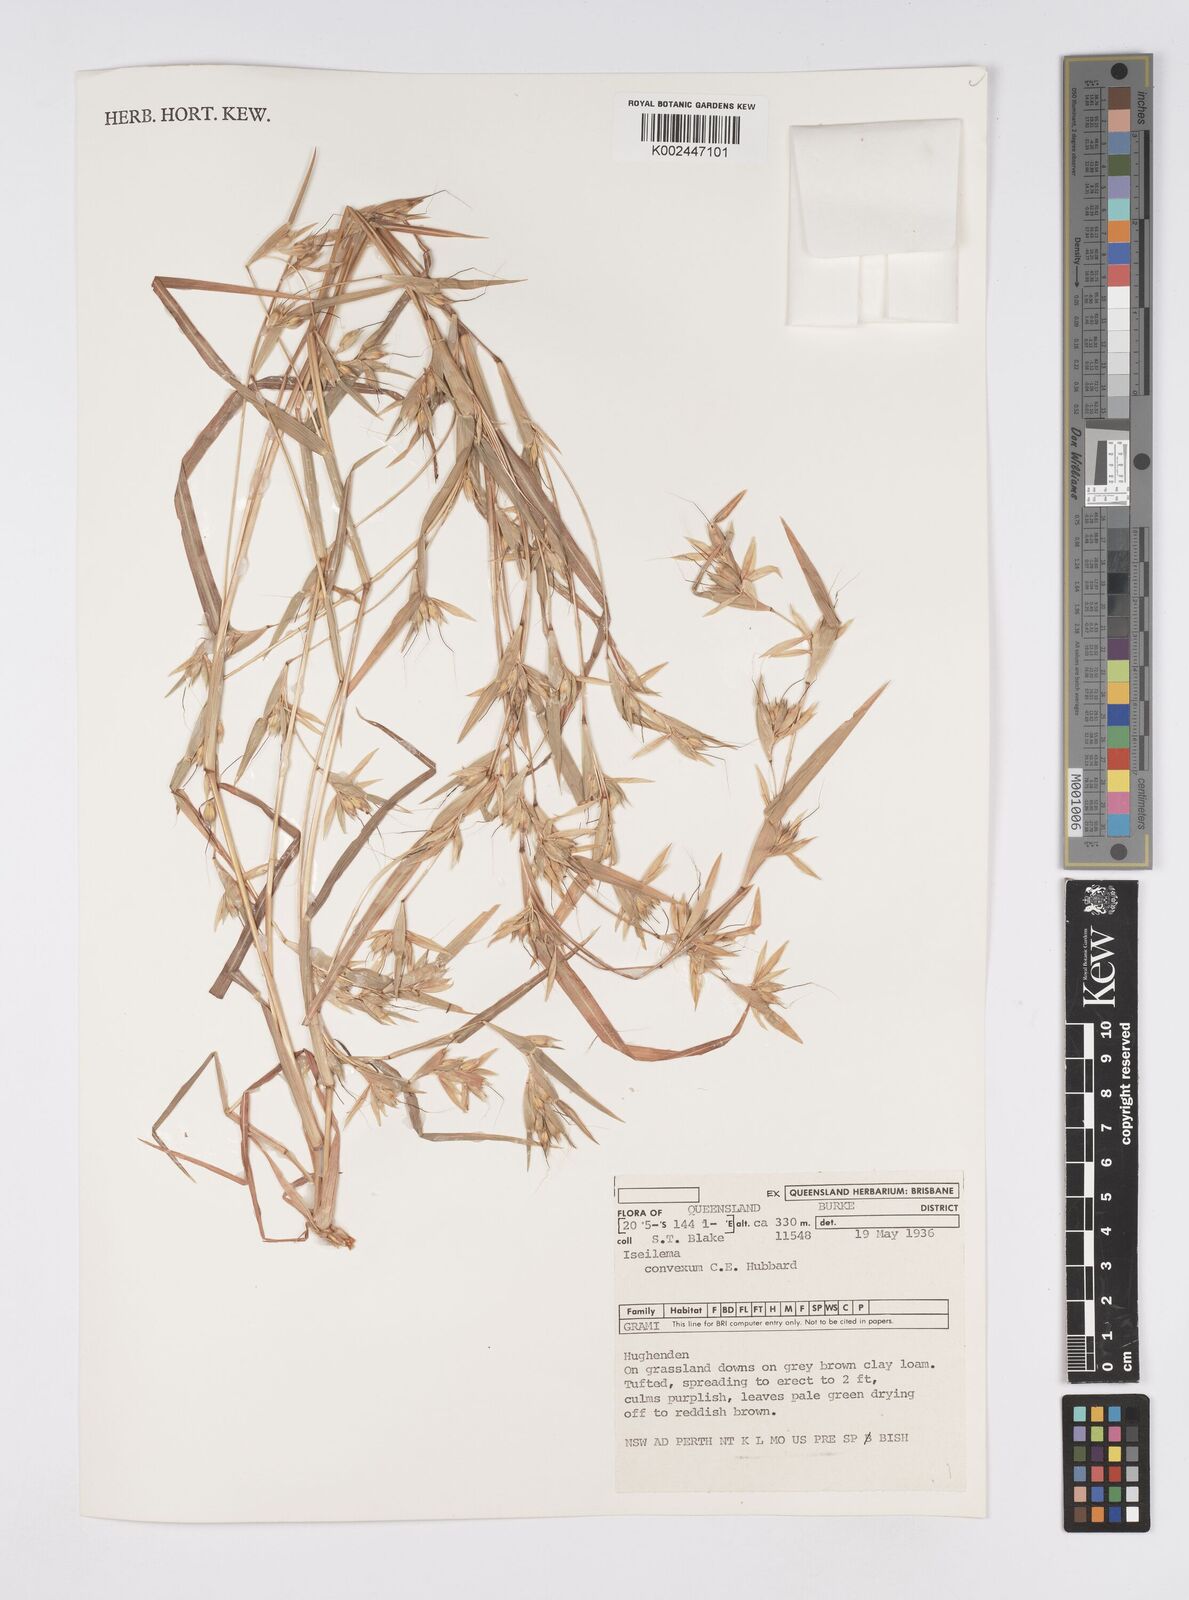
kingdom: Plantae
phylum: Tracheophyta
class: Liliopsida
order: Poales
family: Poaceae
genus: Iseilema
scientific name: Iseilema convexum
